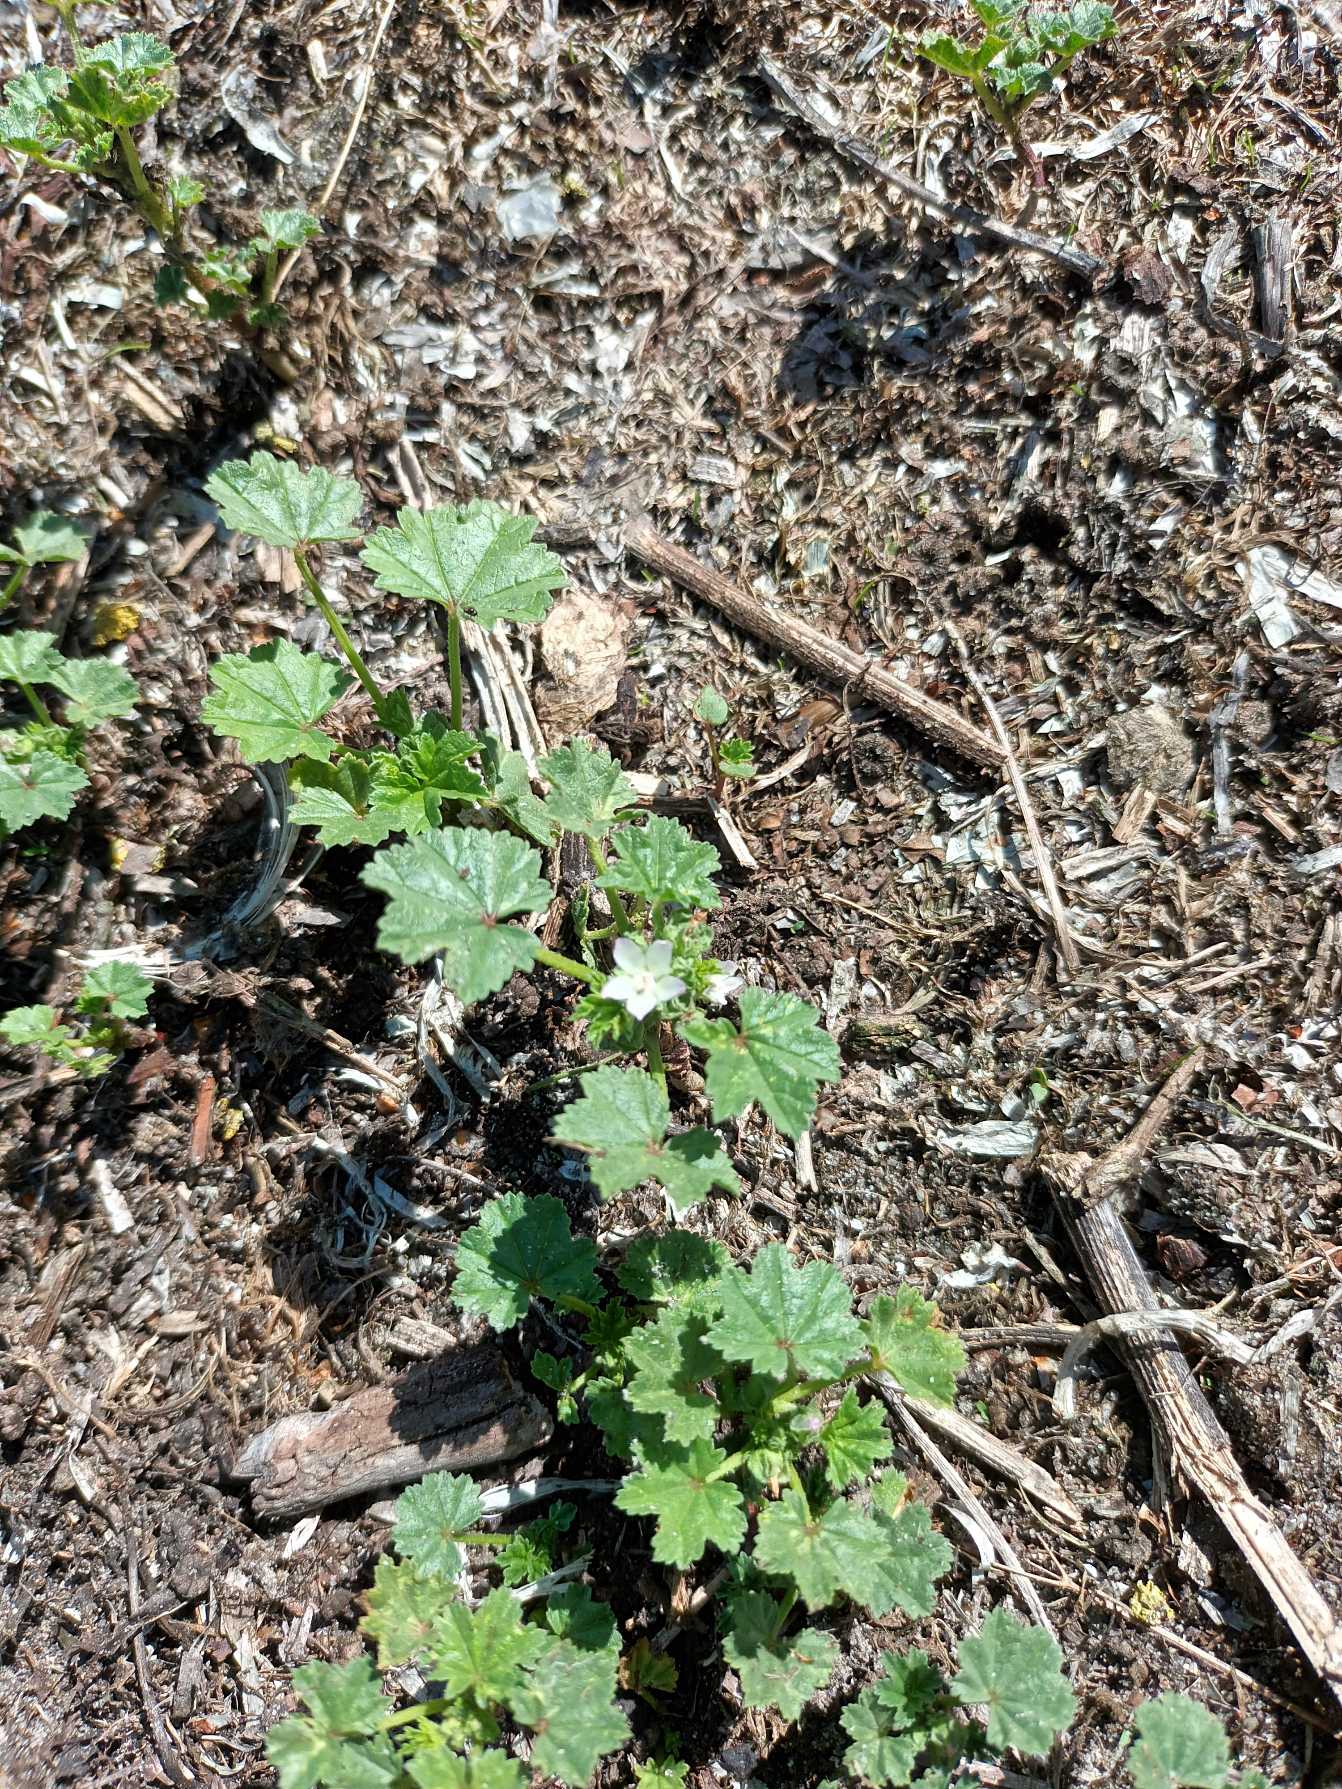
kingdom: Plantae
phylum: Tracheophyta
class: Magnoliopsida
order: Malvales
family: Malvaceae
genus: Malva
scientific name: Malva pusilla
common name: Liden katost
